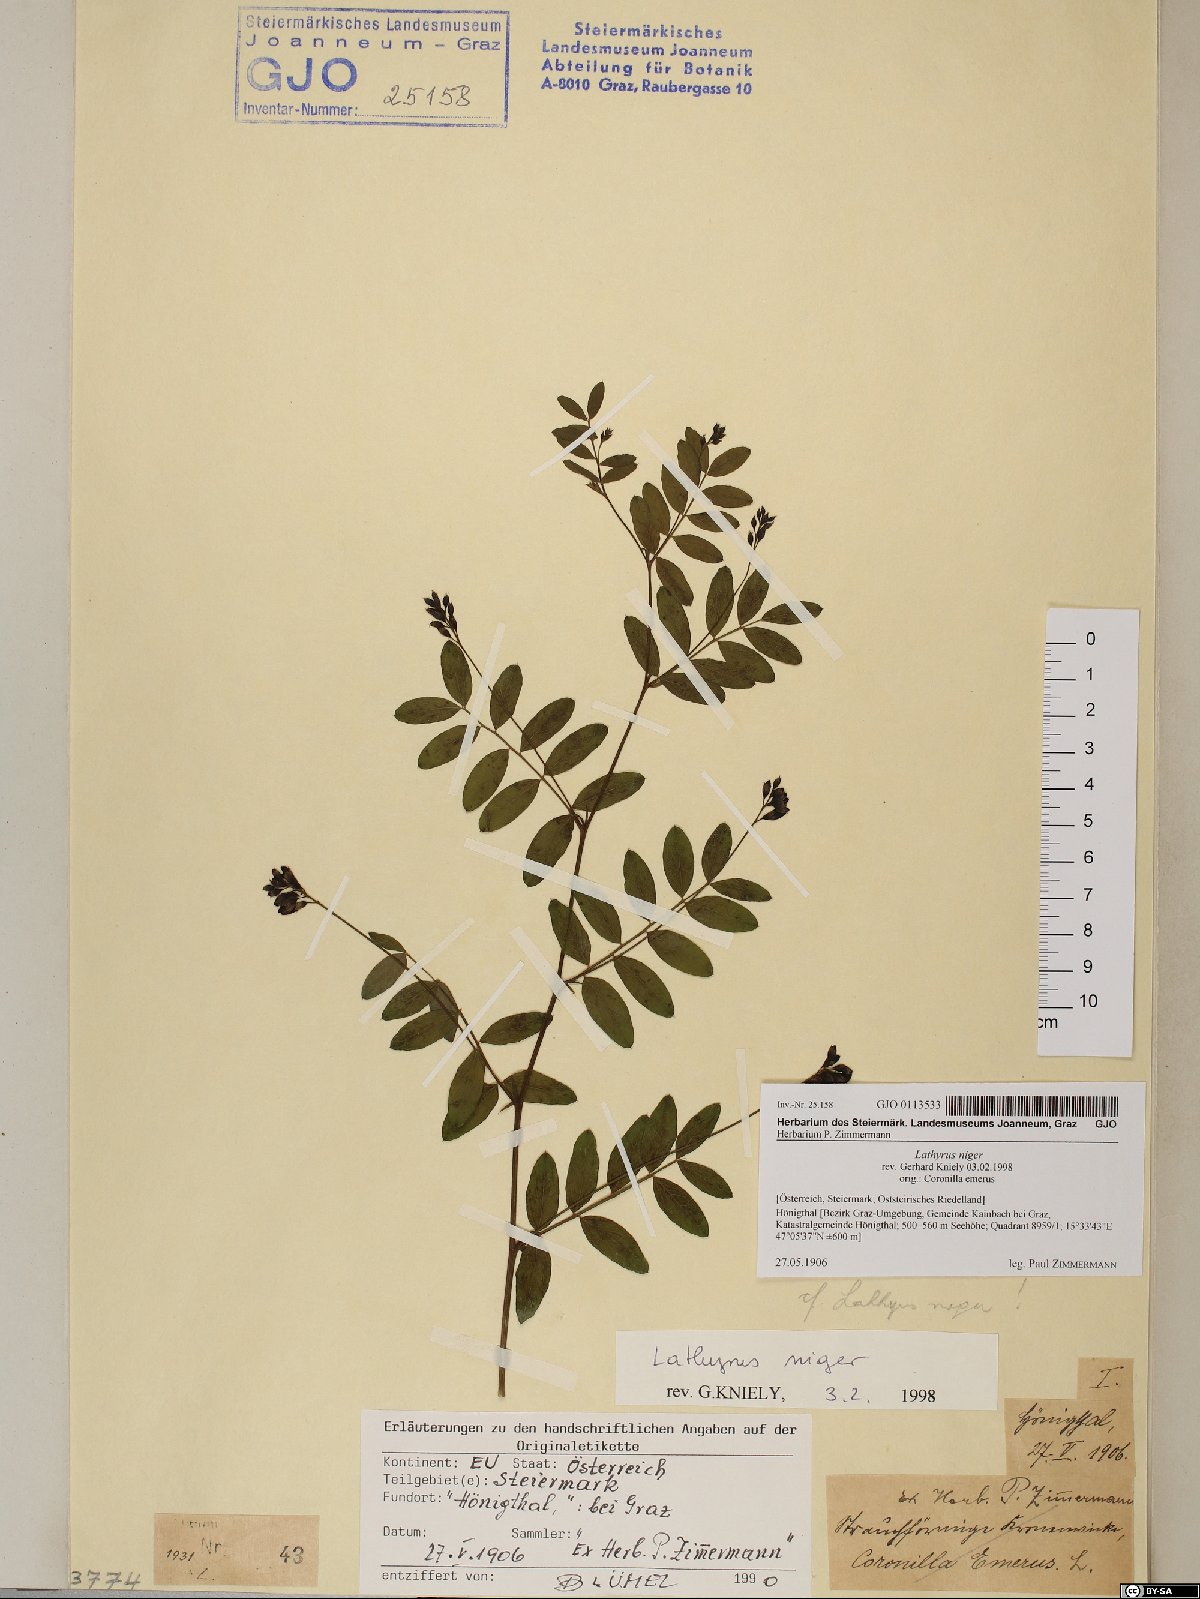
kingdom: Plantae
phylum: Tracheophyta
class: Magnoliopsida
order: Fabales
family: Fabaceae
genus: Lathyrus
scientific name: Lathyrus niger
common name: Black pea
